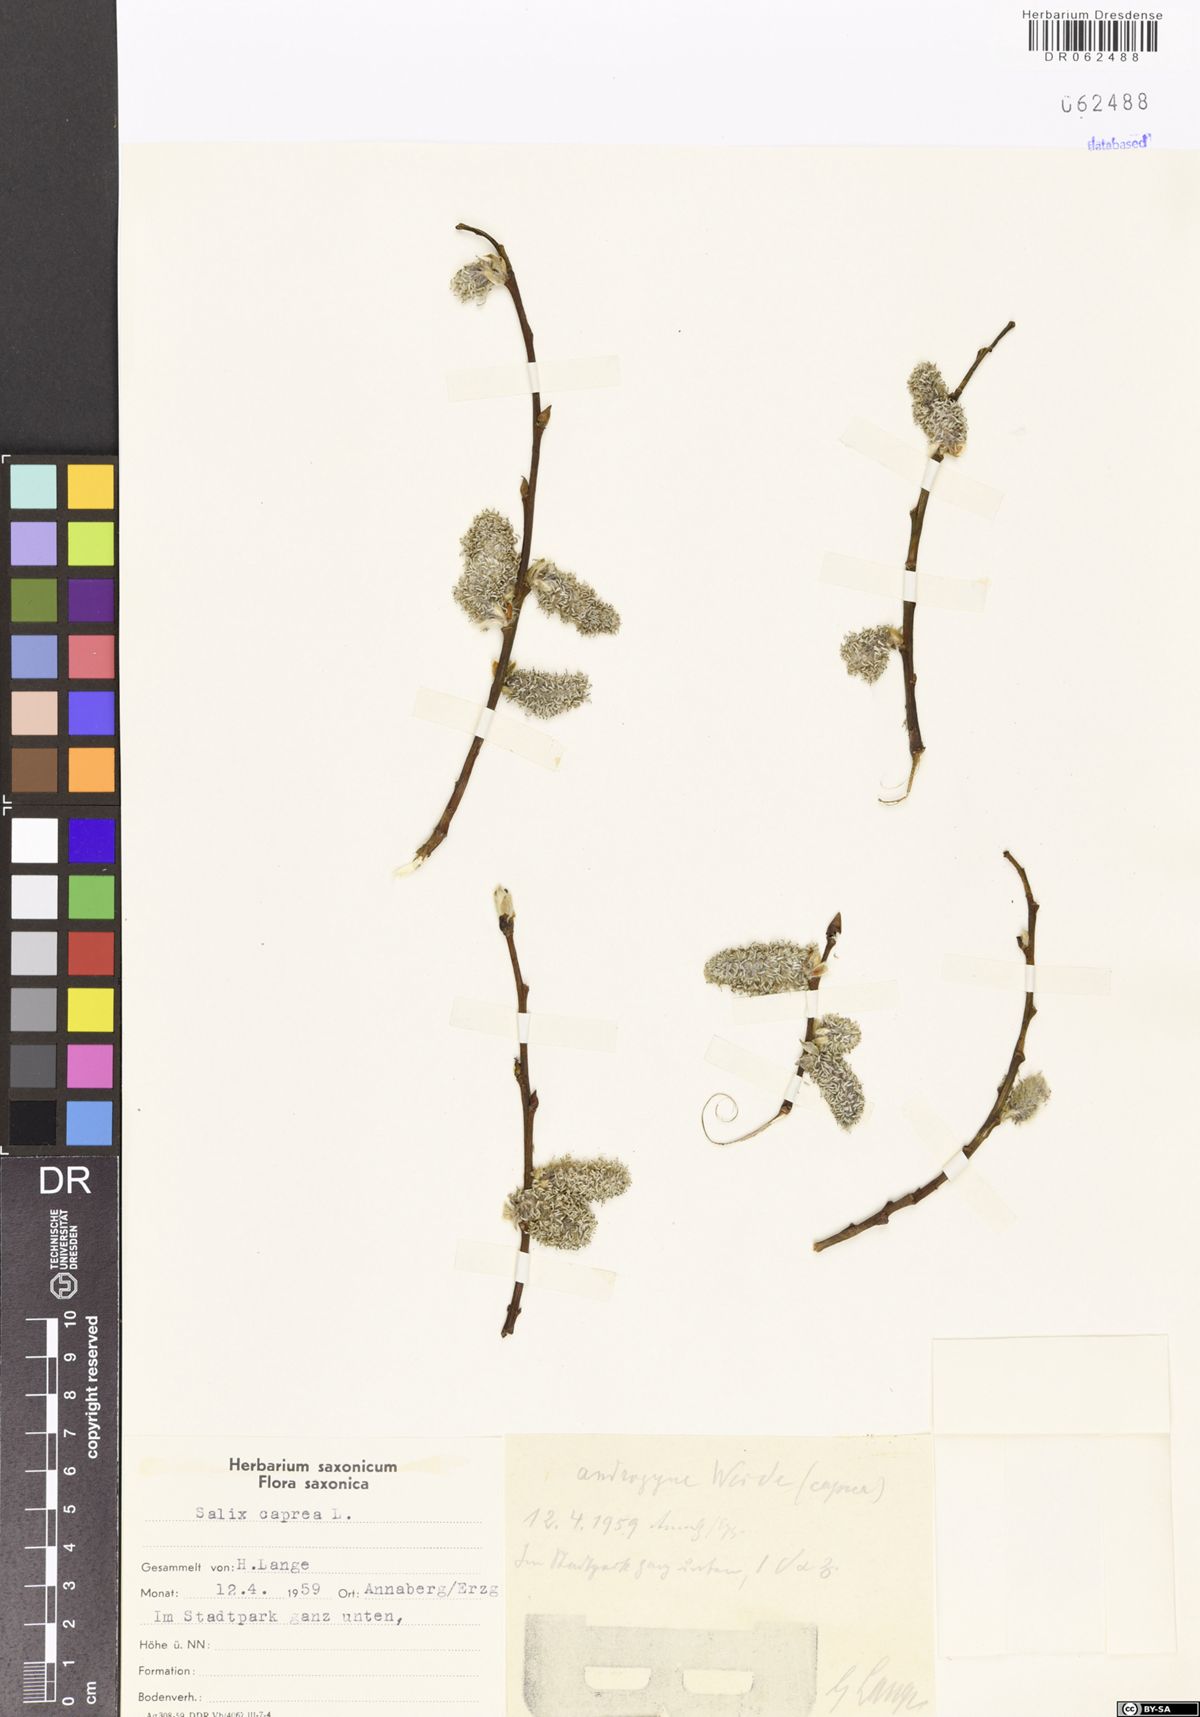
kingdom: Plantae
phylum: Tracheophyta
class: Magnoliopsida
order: Malpighiales
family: Salicaceae
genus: Salix
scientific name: Salix caprea
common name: Goat willow
